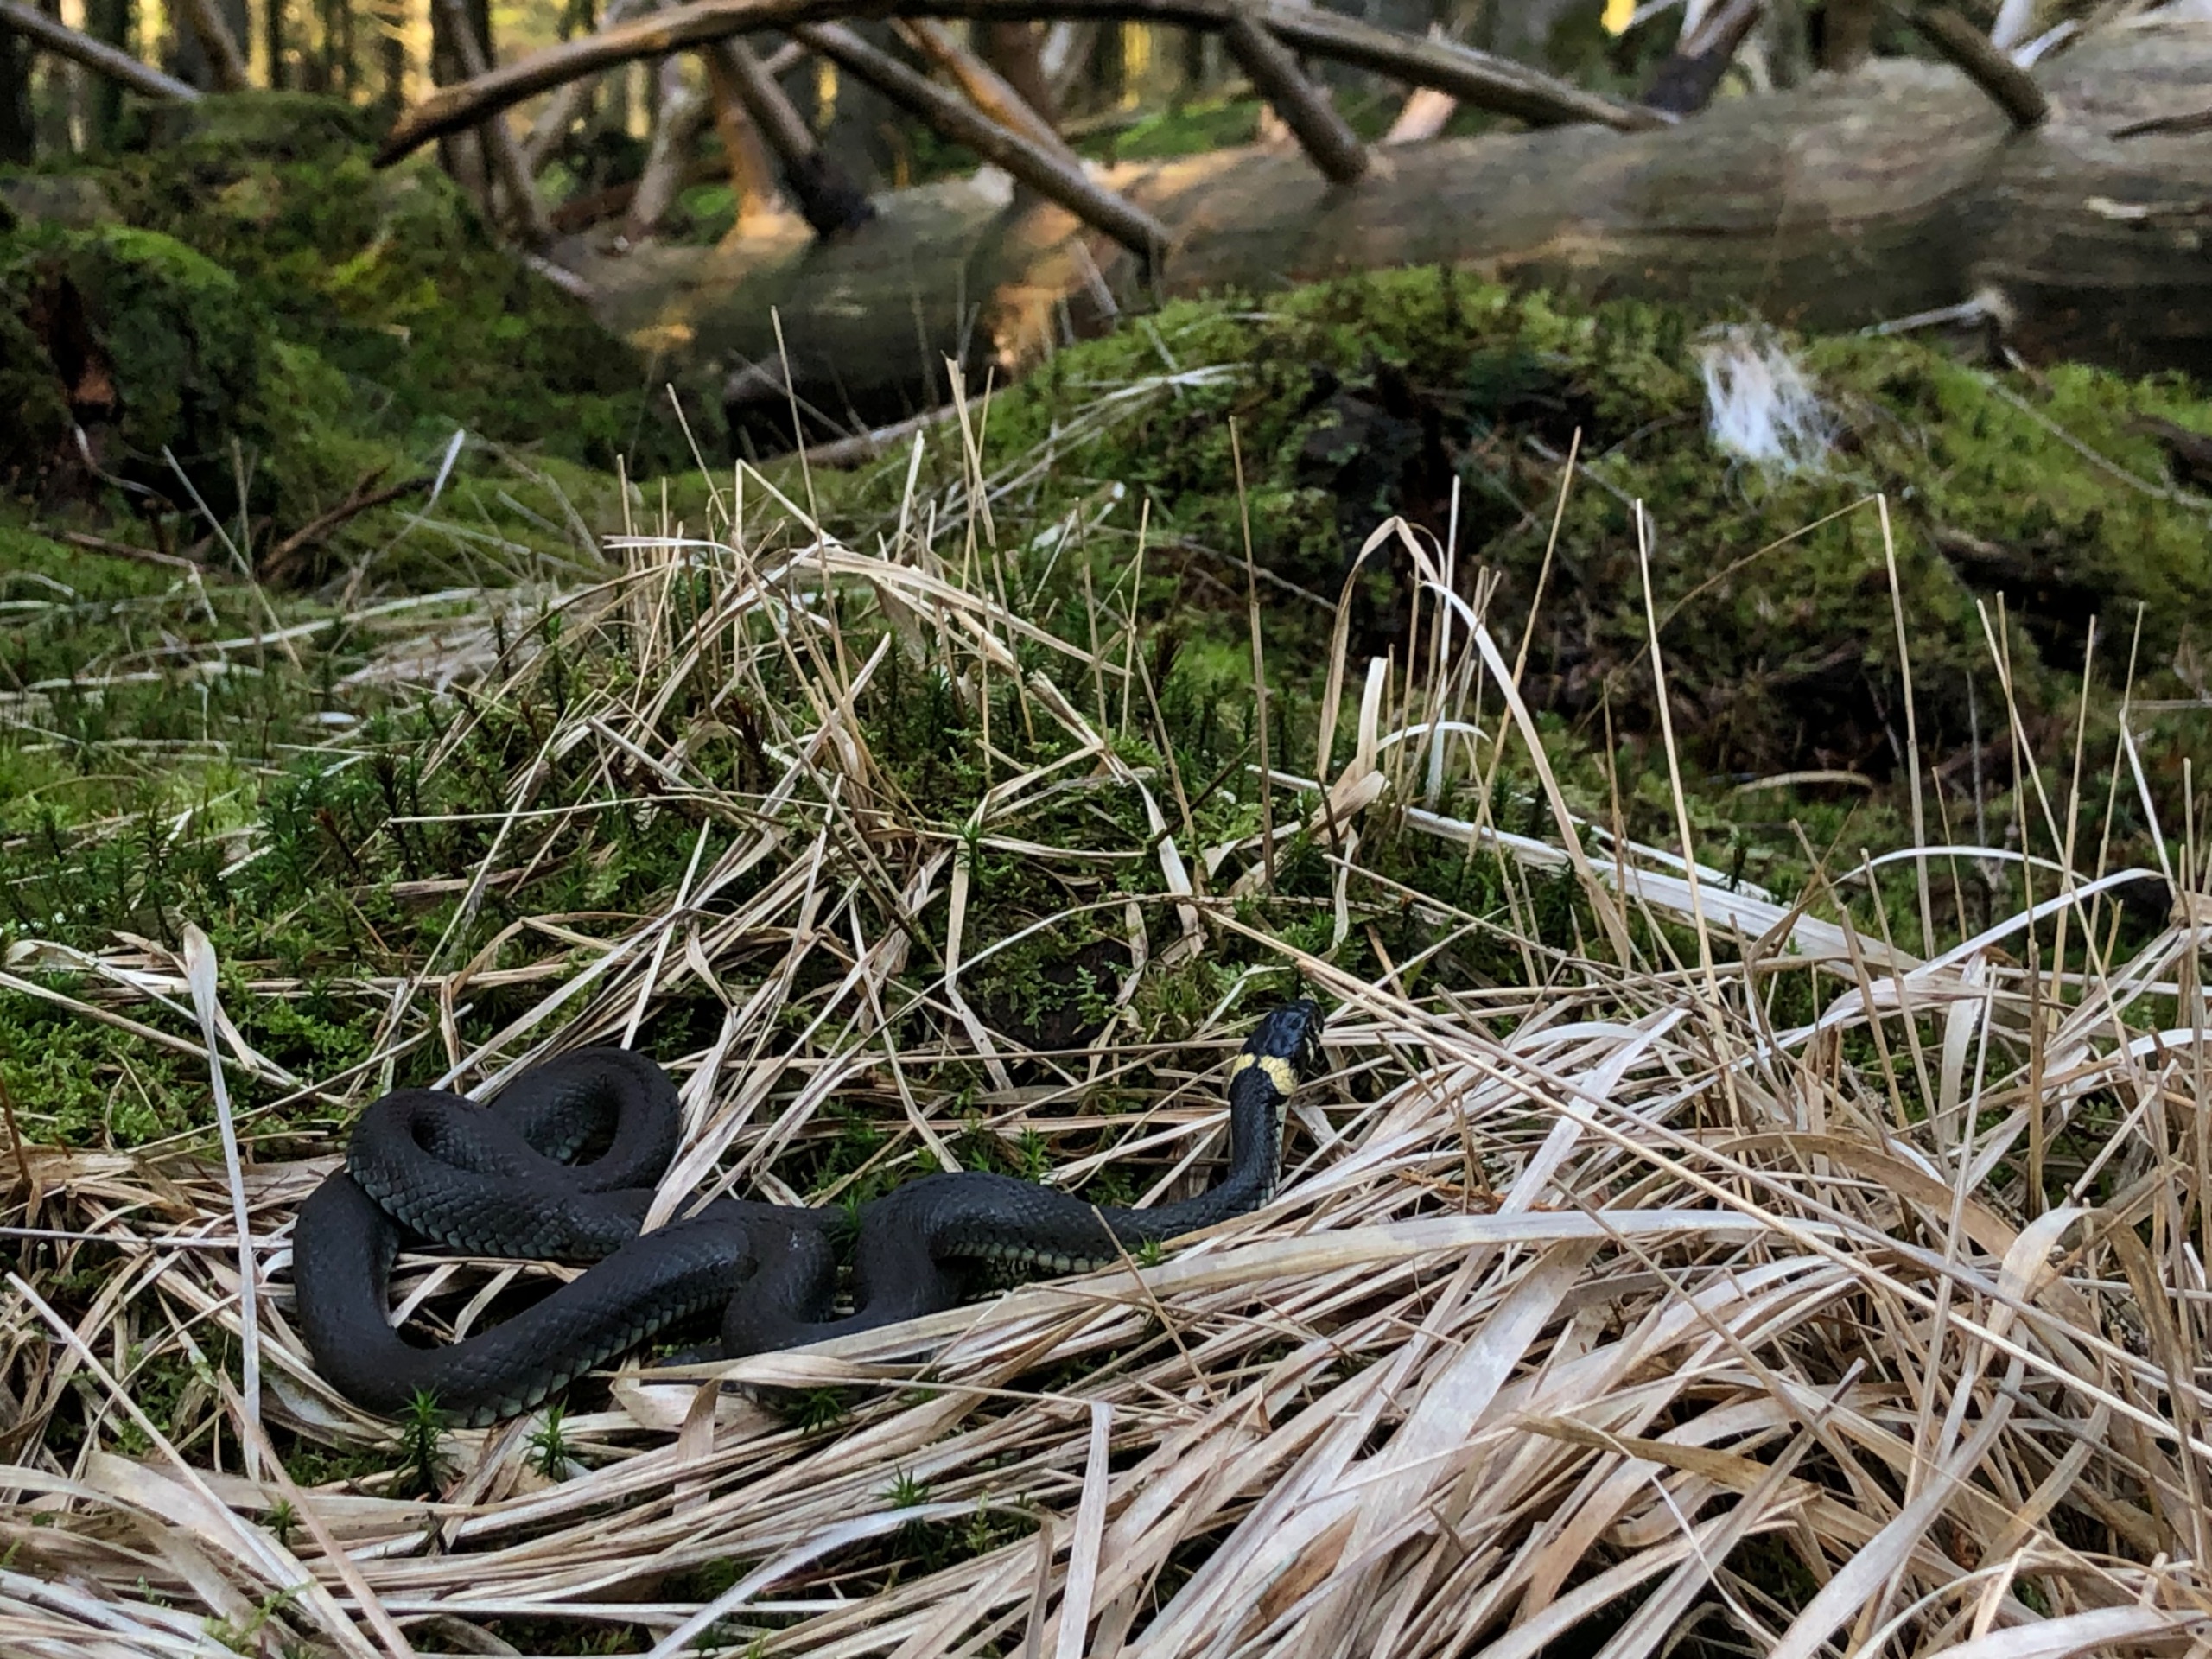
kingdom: Animalia
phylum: Chordata
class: Squamata
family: Colubridae
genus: Natrix
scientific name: Natrix natrix
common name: Snog
